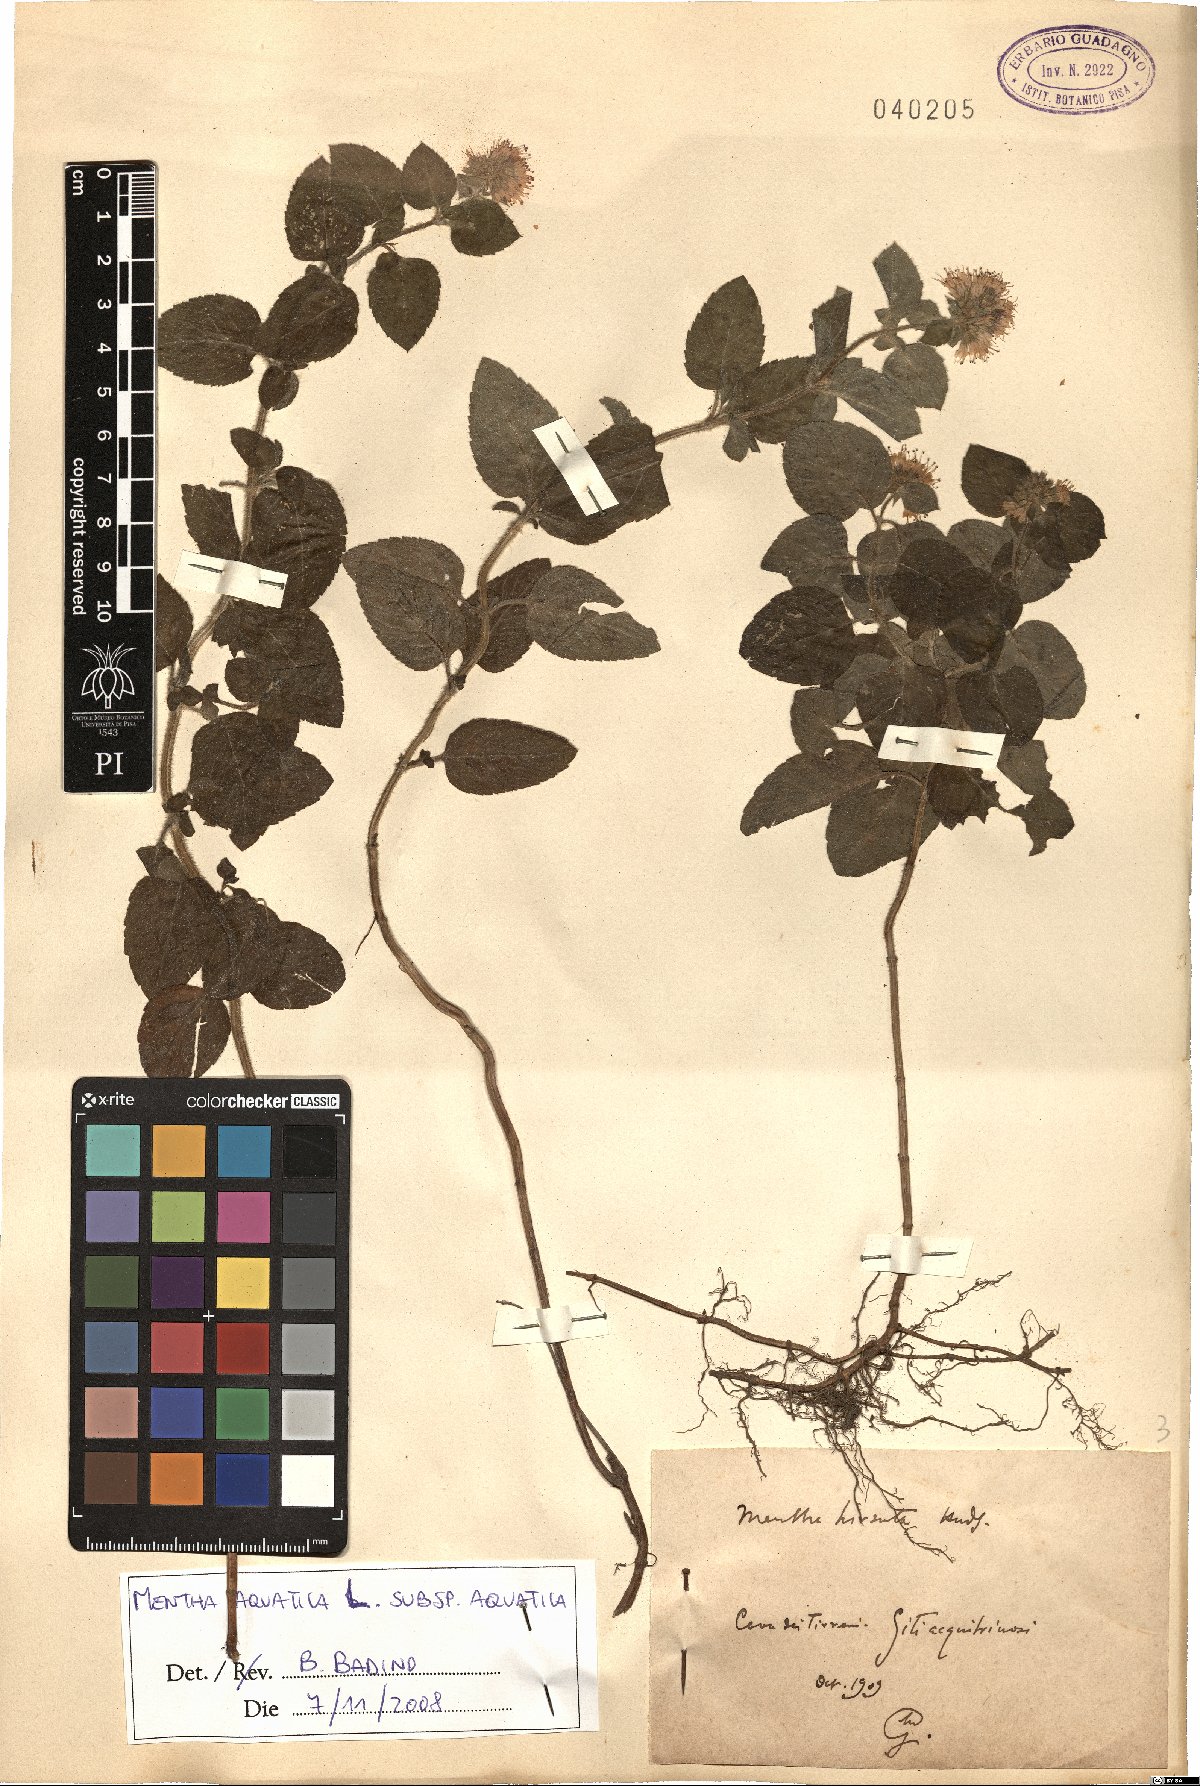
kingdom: Plantae
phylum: Tracheophyta
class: Magnoliopsida
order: Lamiales
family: Lamiaceae
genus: Mentha
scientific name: Mentha aquatica
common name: Water mint
